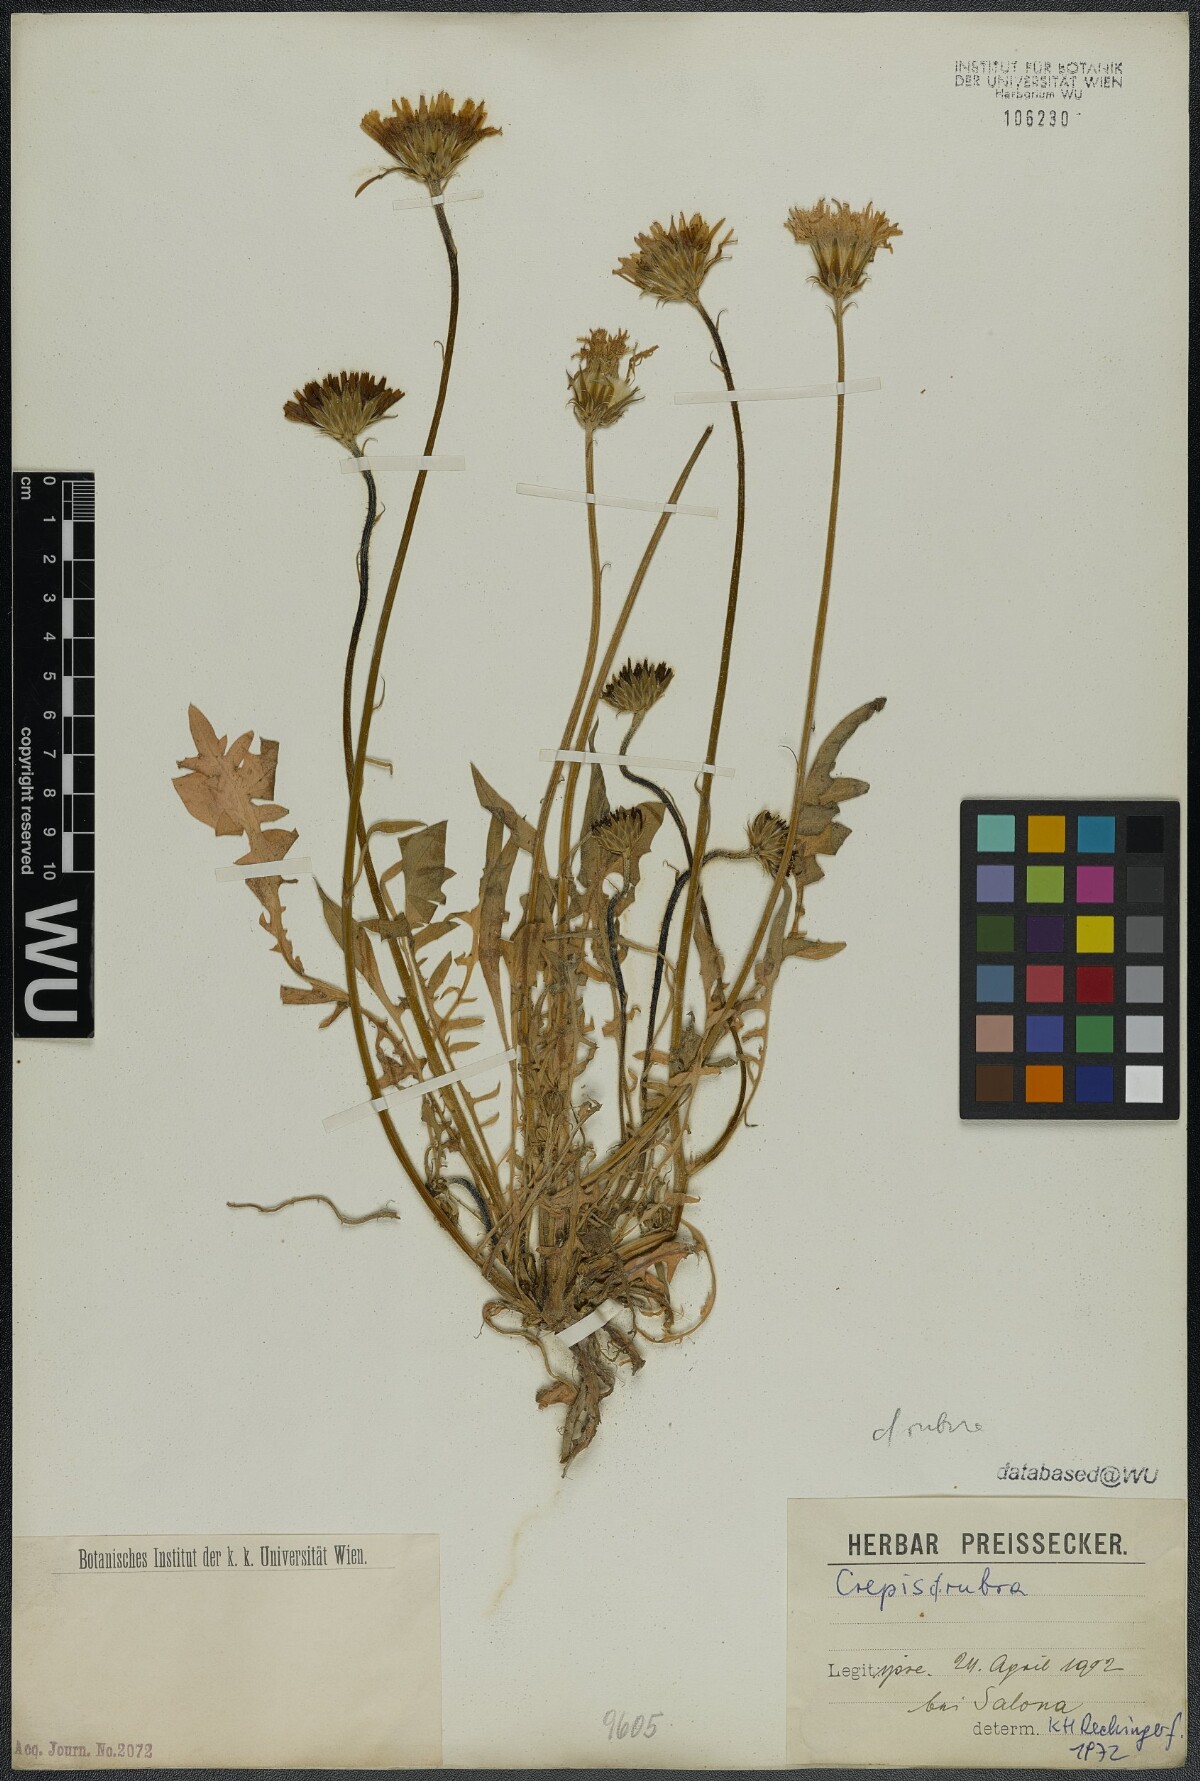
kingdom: Plantae
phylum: Tracheophyta
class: Magnoliopsida
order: Asterales
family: Asteraceae
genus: Crepis
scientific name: Crepis rubra
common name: Pink hawk's-beard
